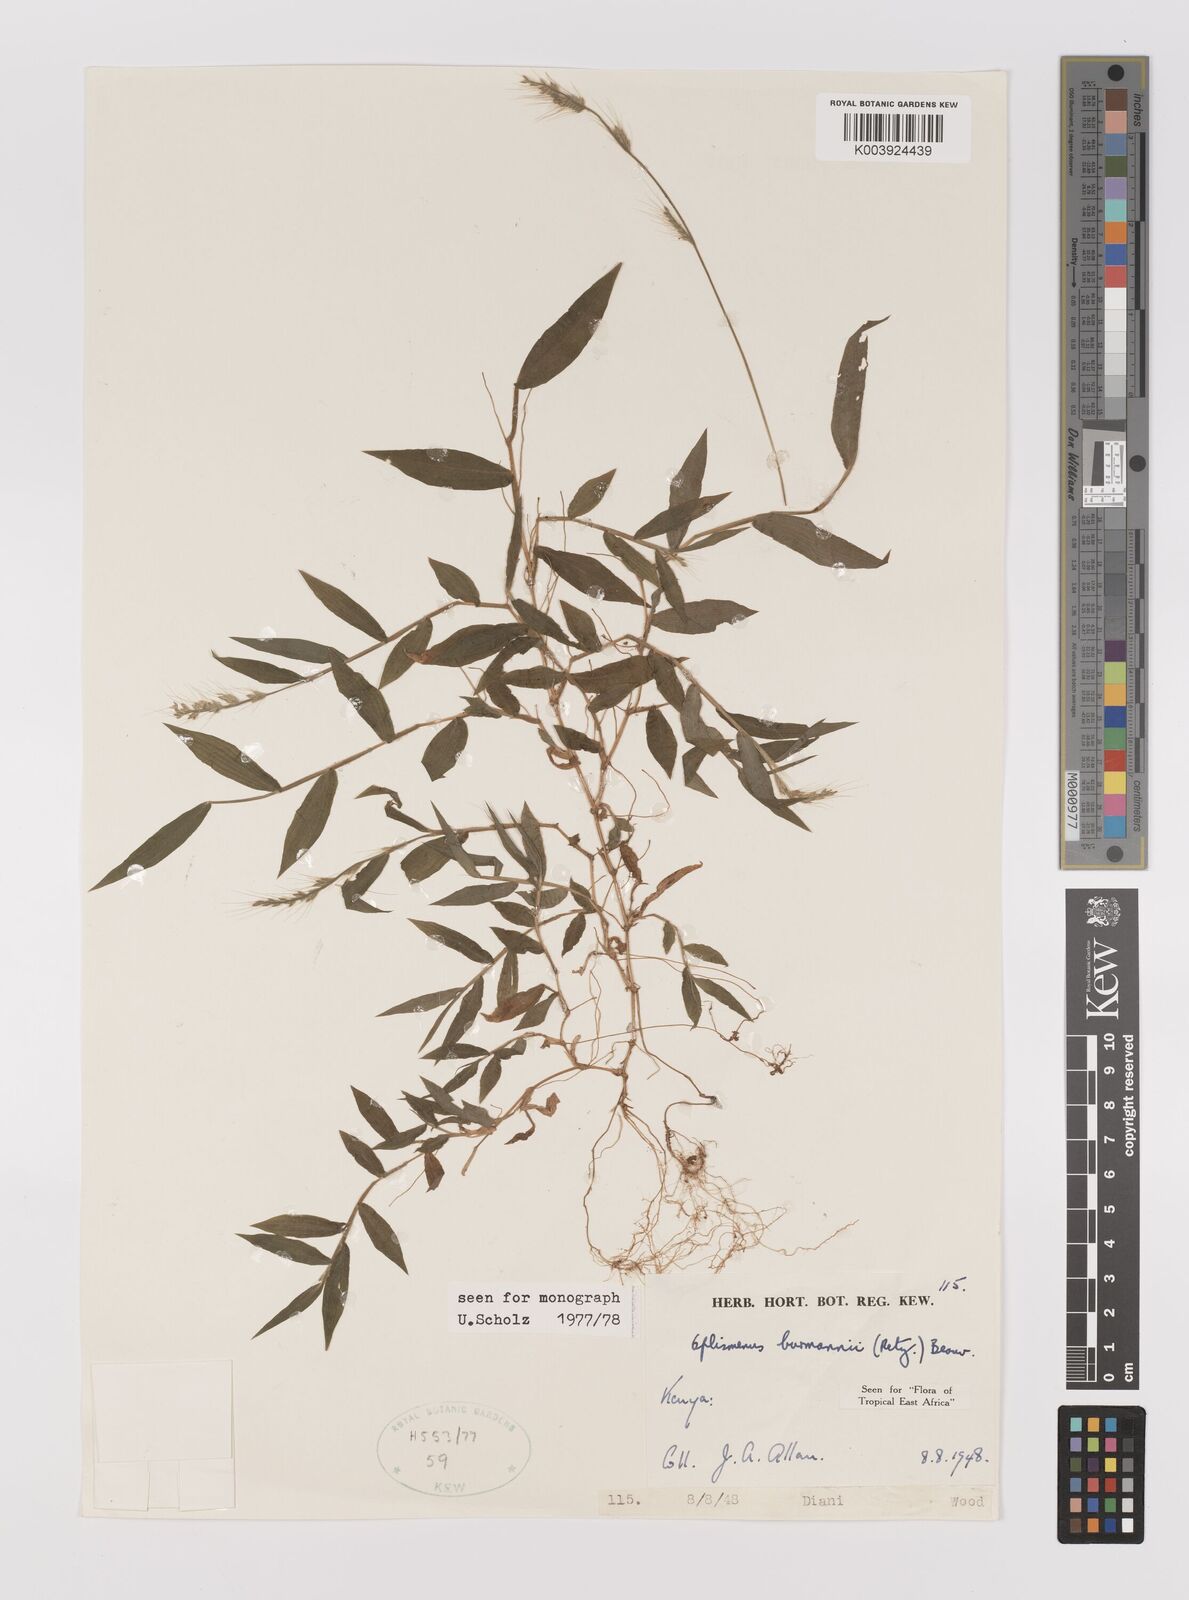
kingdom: Plantae
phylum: Tracheophyta
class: Liliopsida
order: Poales
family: Poaceae
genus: Oplismenus
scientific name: Oplismenus burmanni
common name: Burmann's basketgrass
